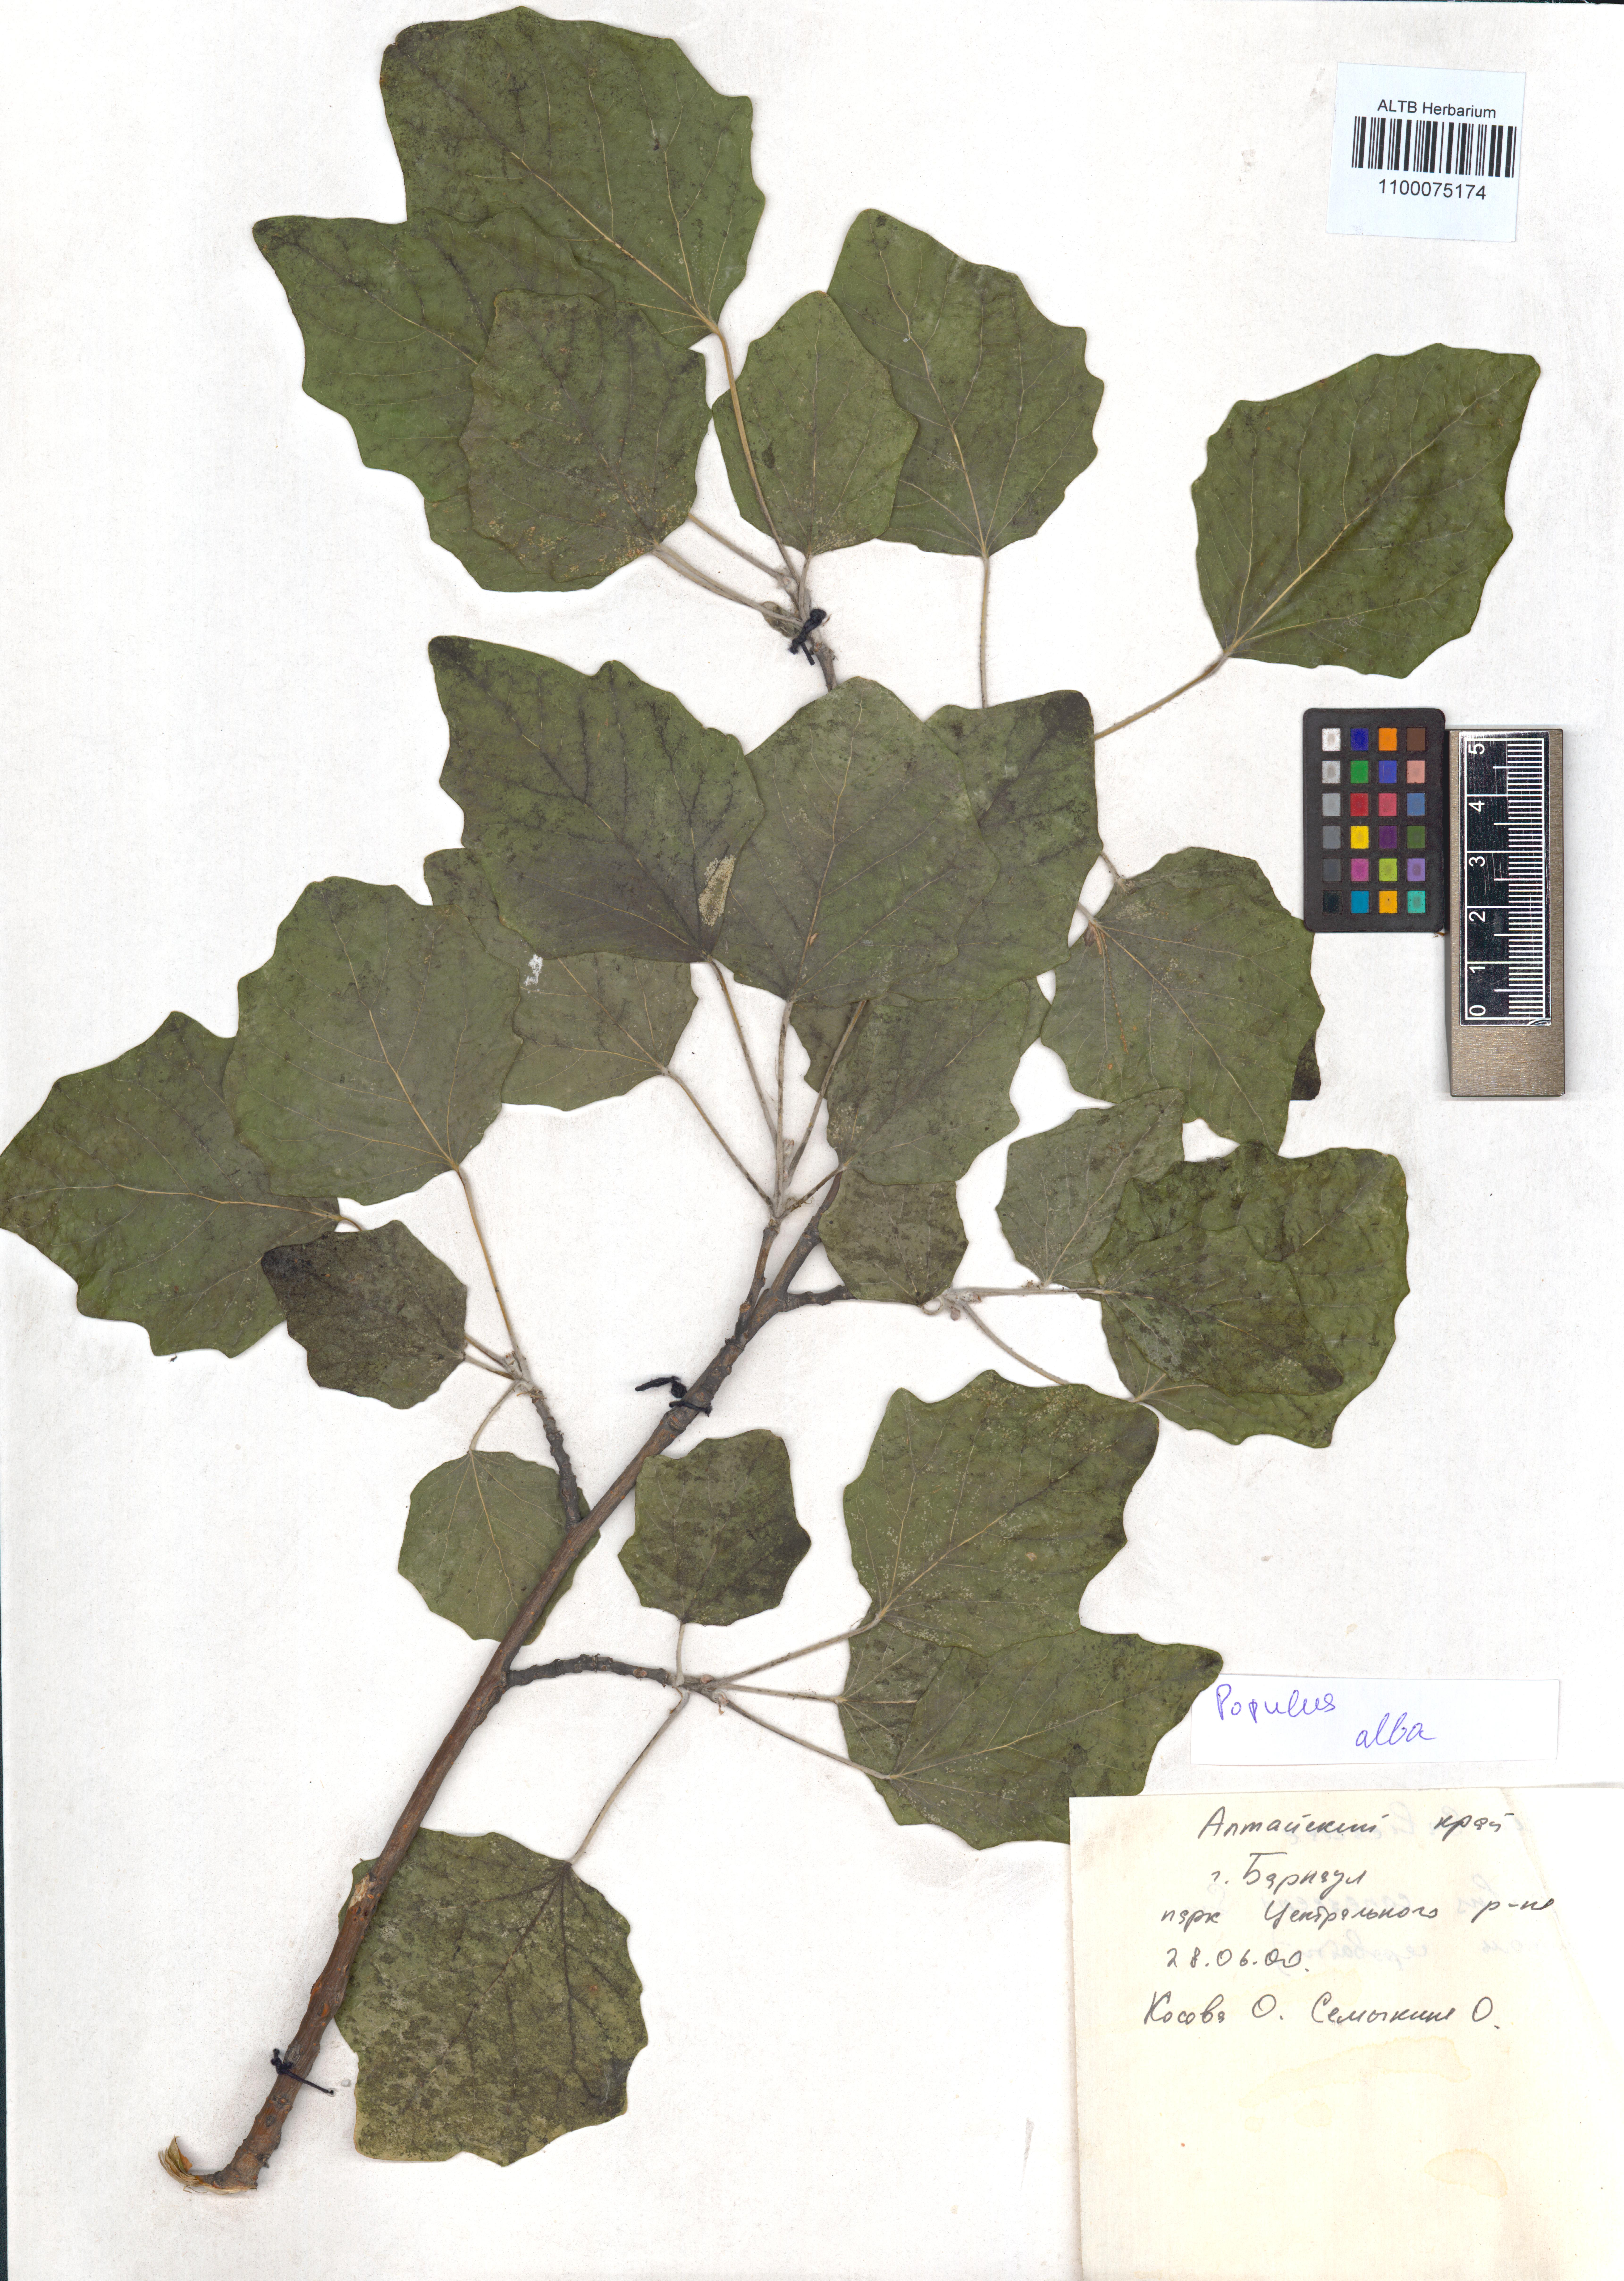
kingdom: Plantae
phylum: Tracheophyta
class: Magnoliopsida
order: Malpighiales
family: Salicaceae
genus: Populus
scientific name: Populus alba
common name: White poplar
